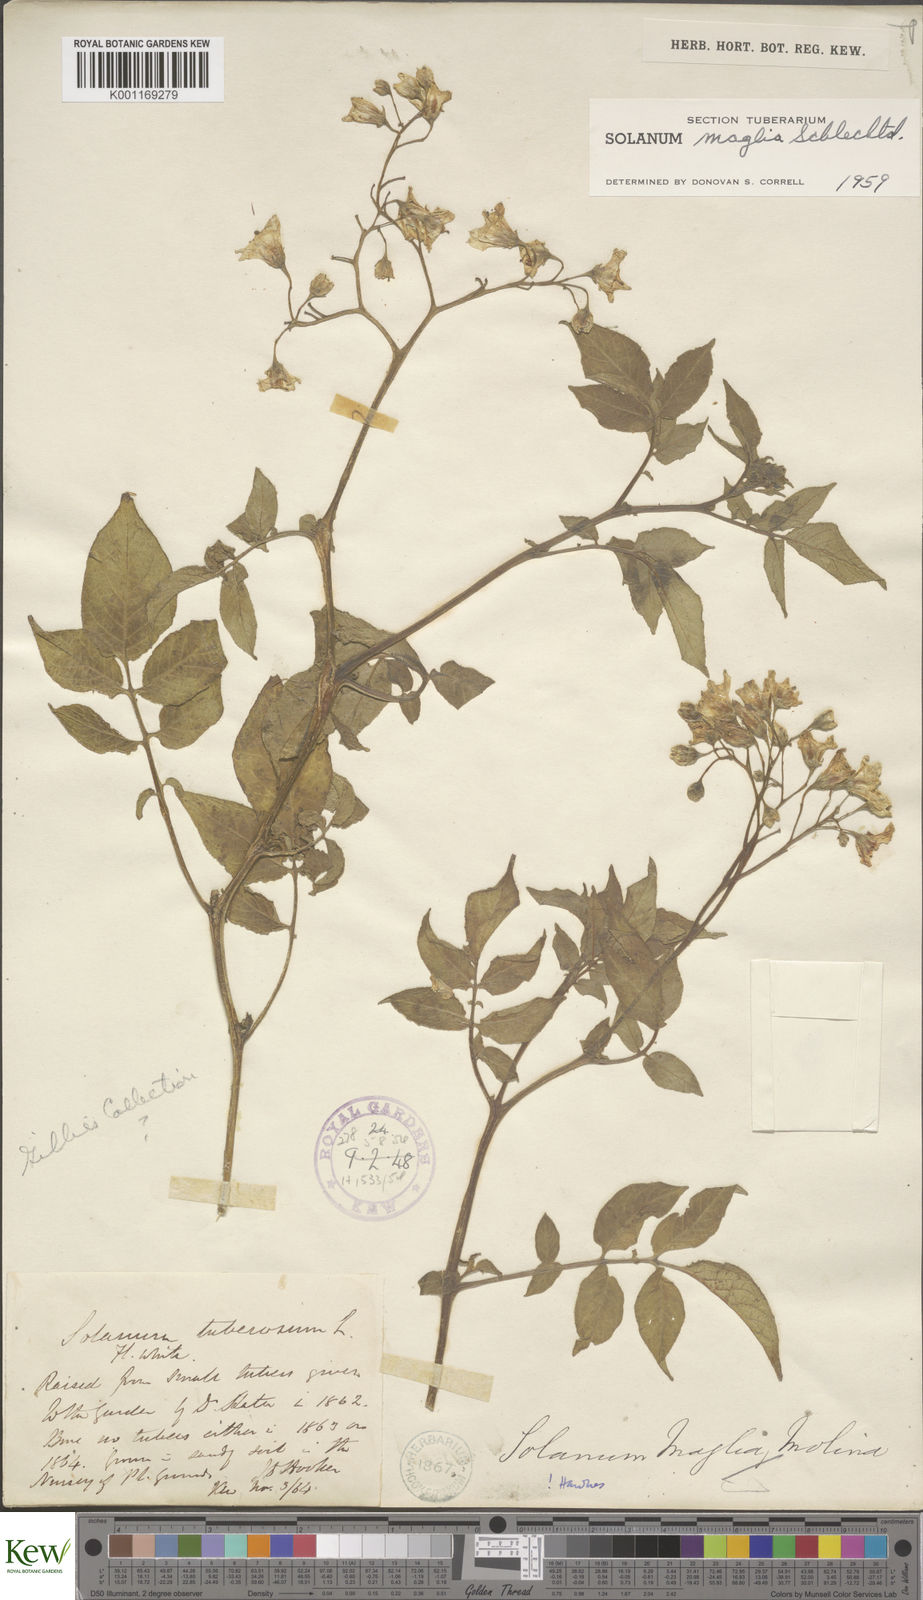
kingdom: Plantae
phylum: Tracheophyta
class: Magnoliopsida
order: Solanales
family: Solanaceae
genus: Solanum
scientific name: Solanum maglia
